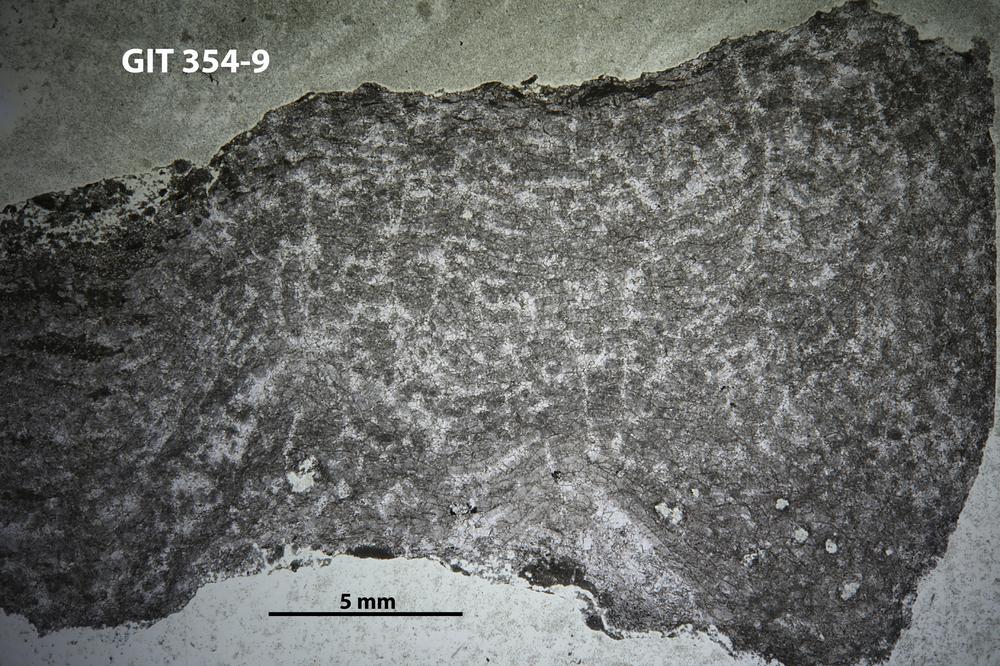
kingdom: Animalia
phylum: Porifera
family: Stromatoceriidae
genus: Cystistroma
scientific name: Cystistroma
